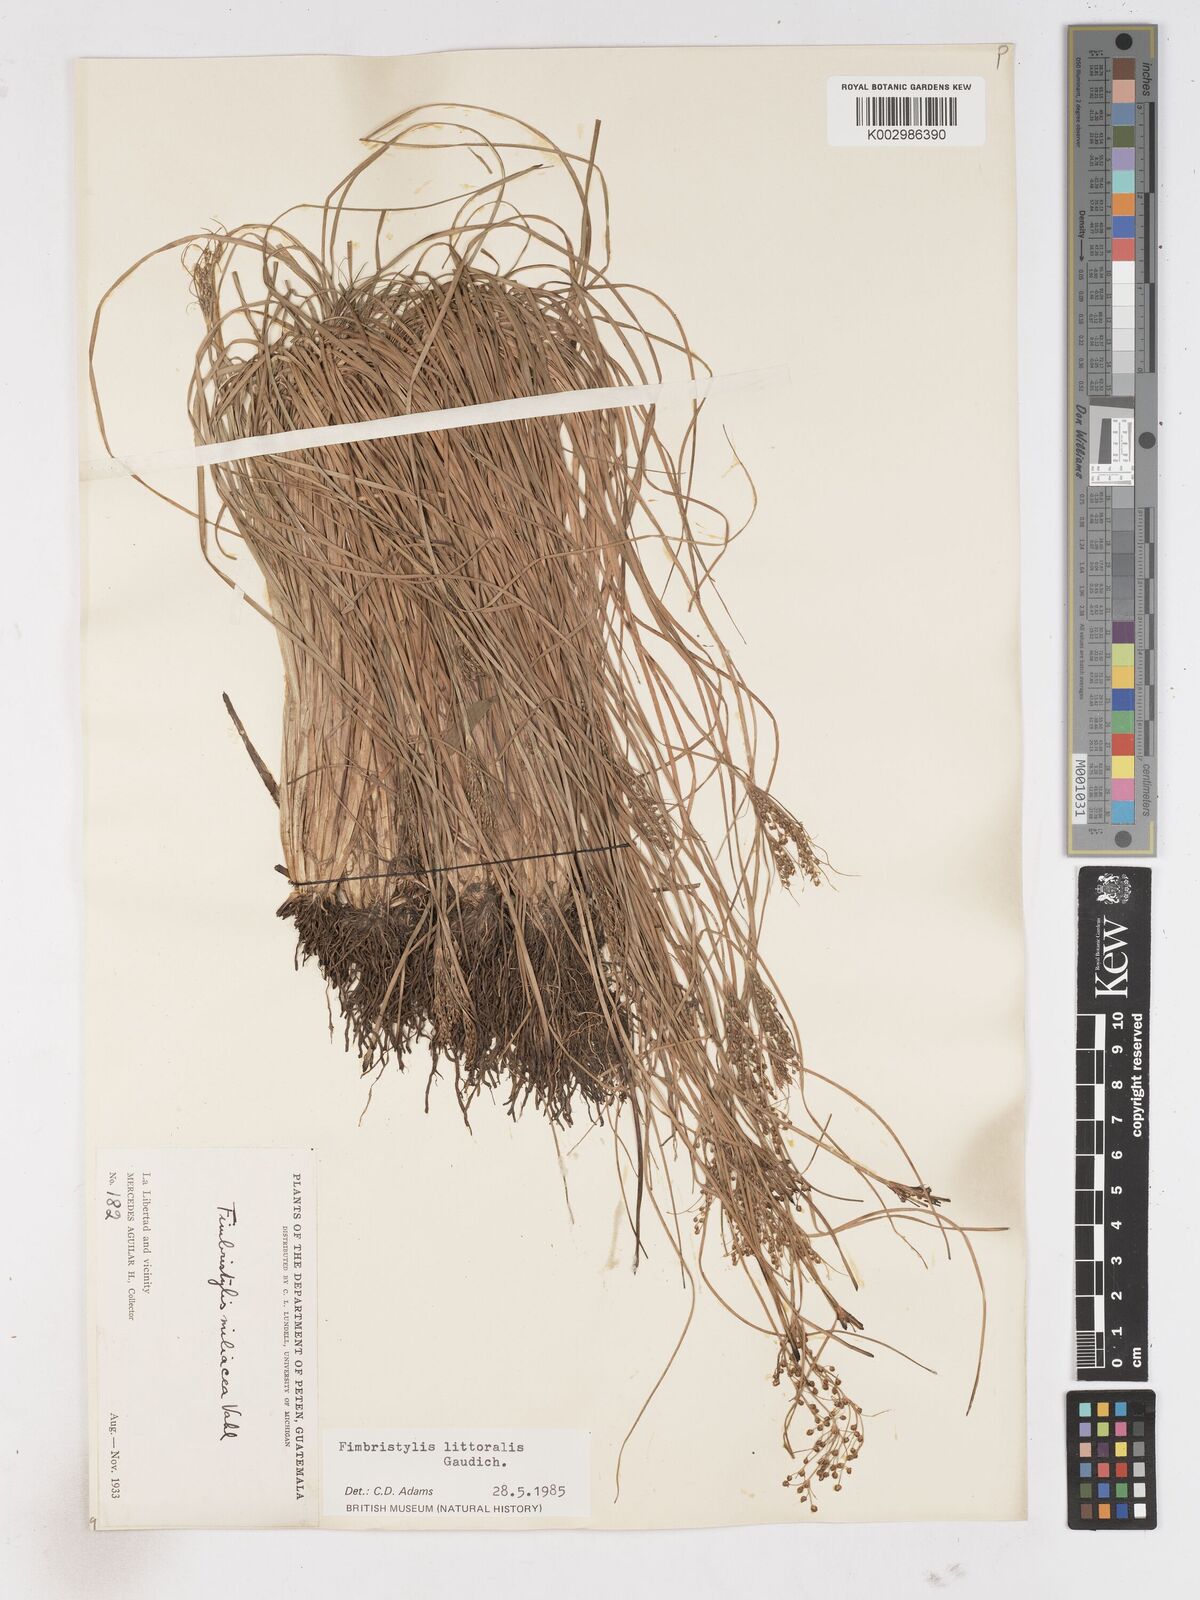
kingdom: Plantae
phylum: Tracheophyta
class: Liliopsida
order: Poales
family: Cyperaceae
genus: Fimbristylis
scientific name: Fimbristylis littoralis
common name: Fimbry
